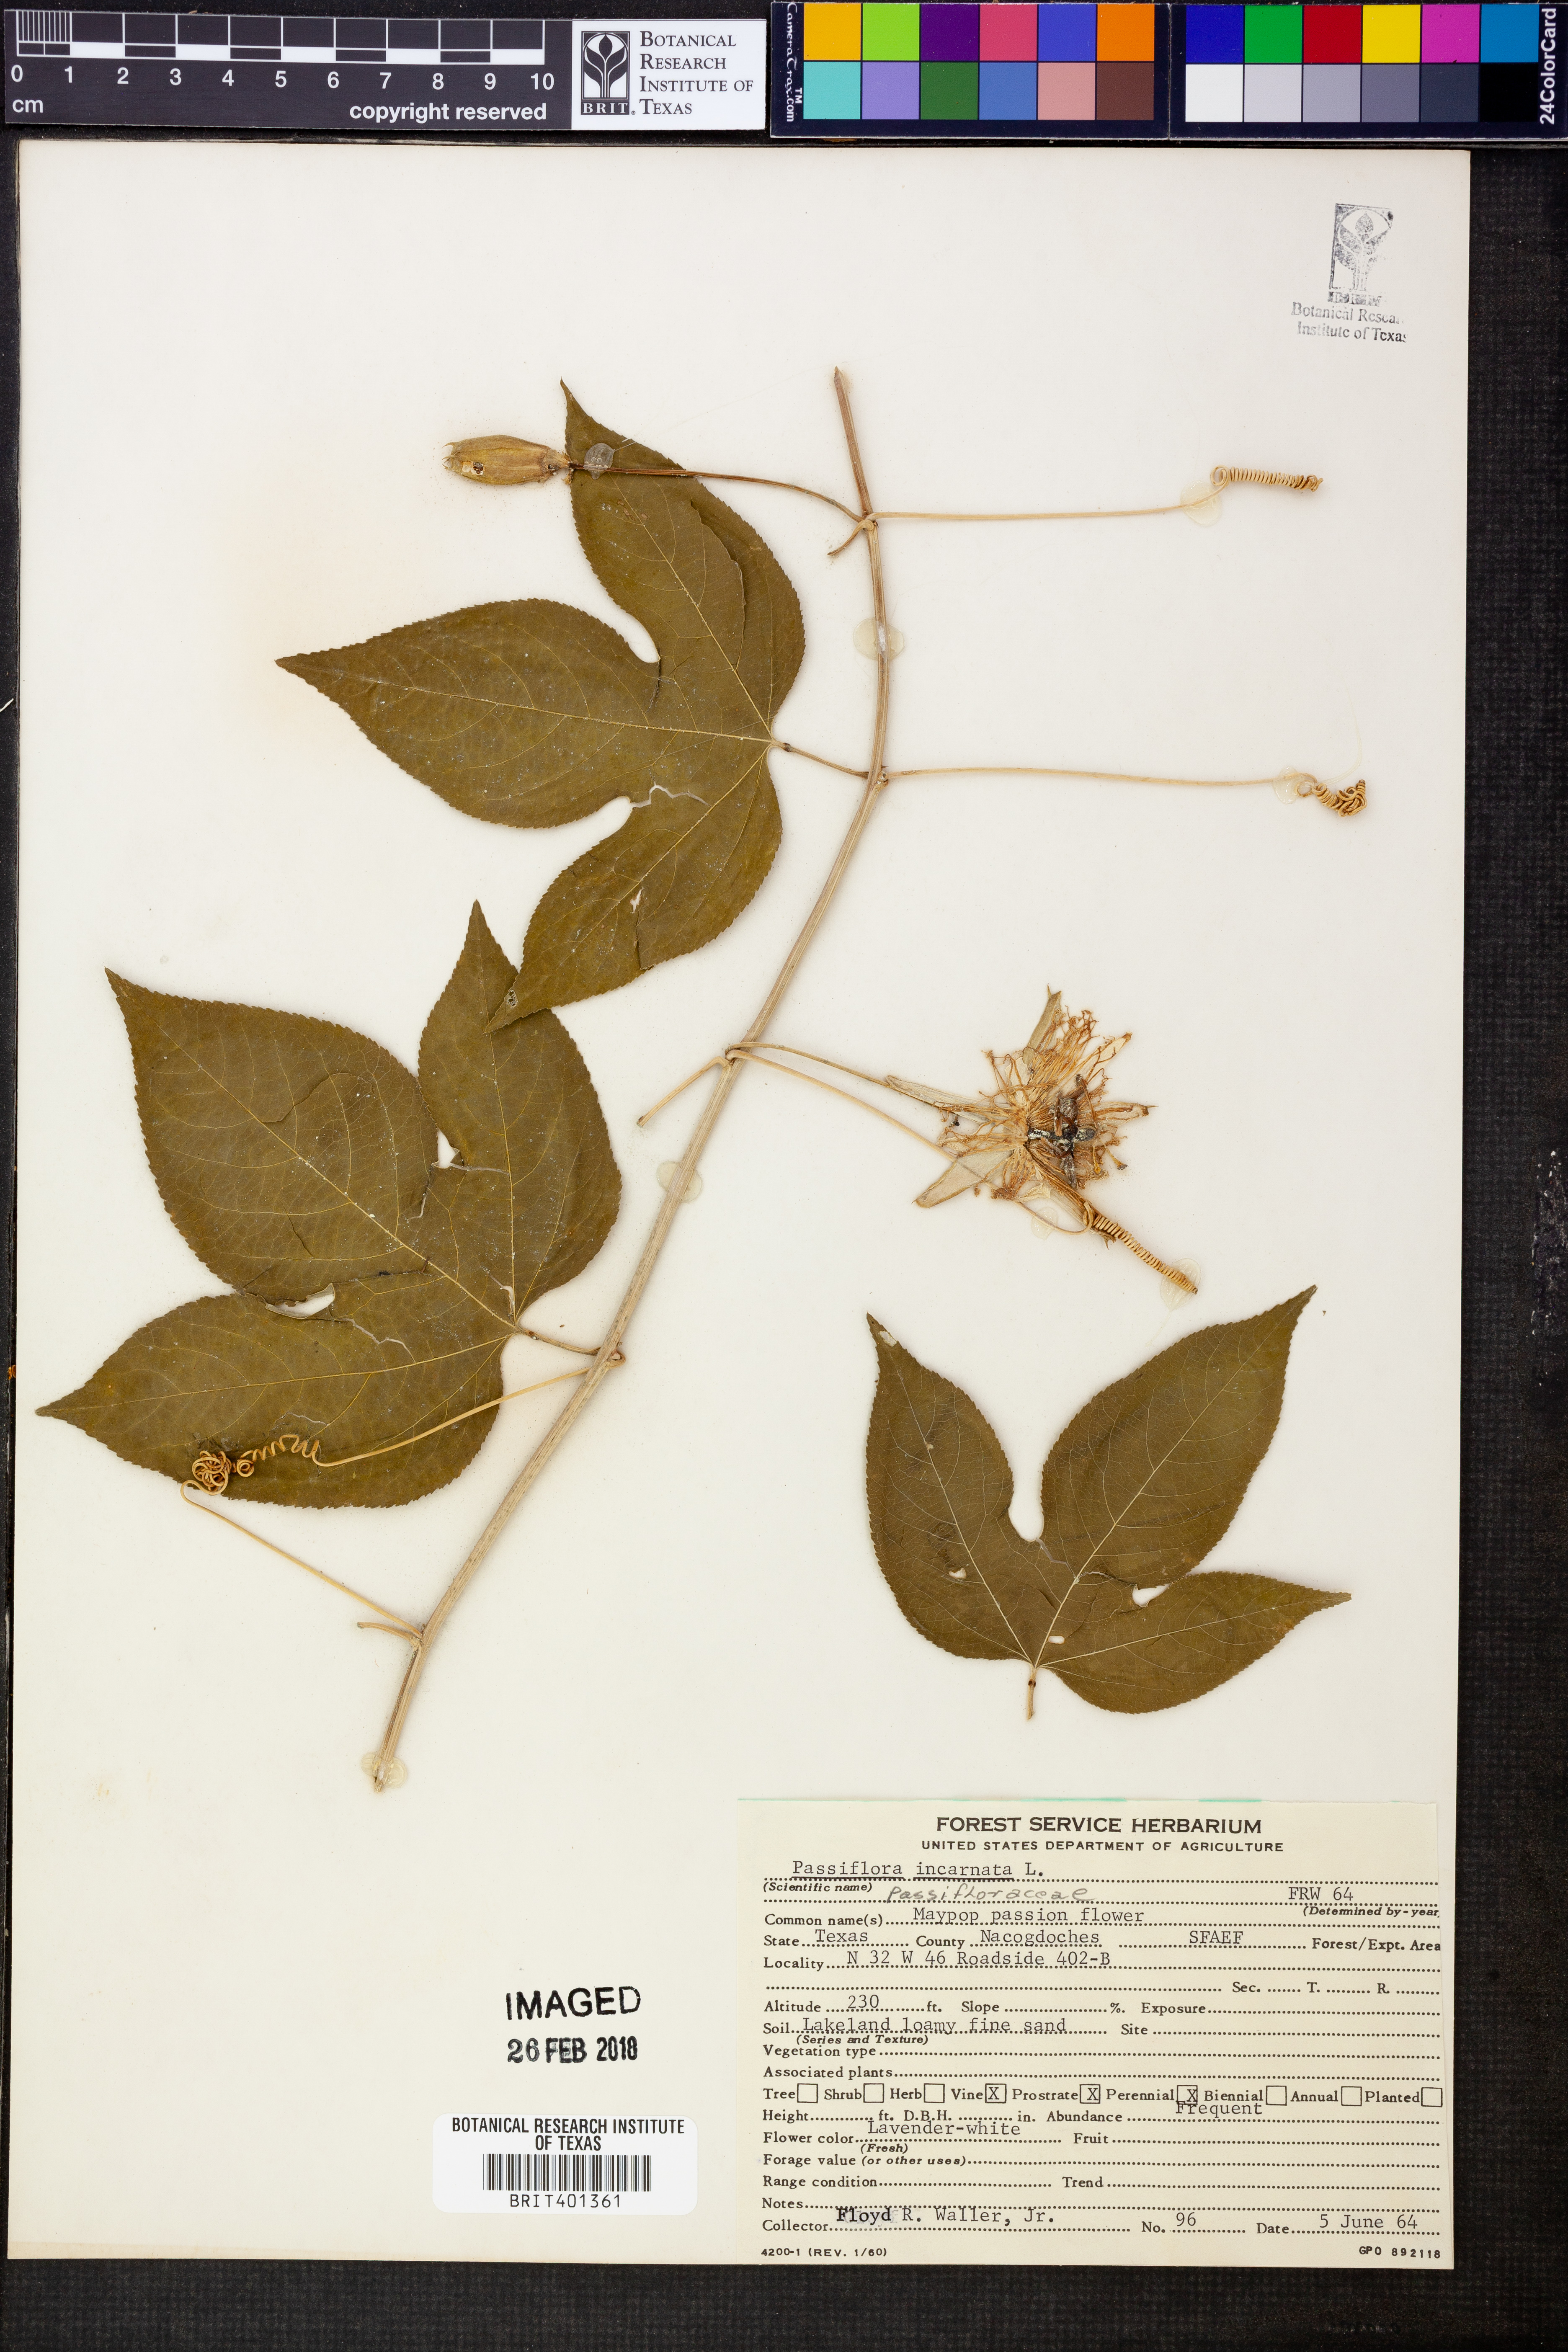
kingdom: Plantae
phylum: Tracheophyta
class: Magnoliopsida
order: Malpighiales
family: Passifloraceae
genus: Passiflora
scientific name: Passiflora incarnata
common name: Apricot-vine
